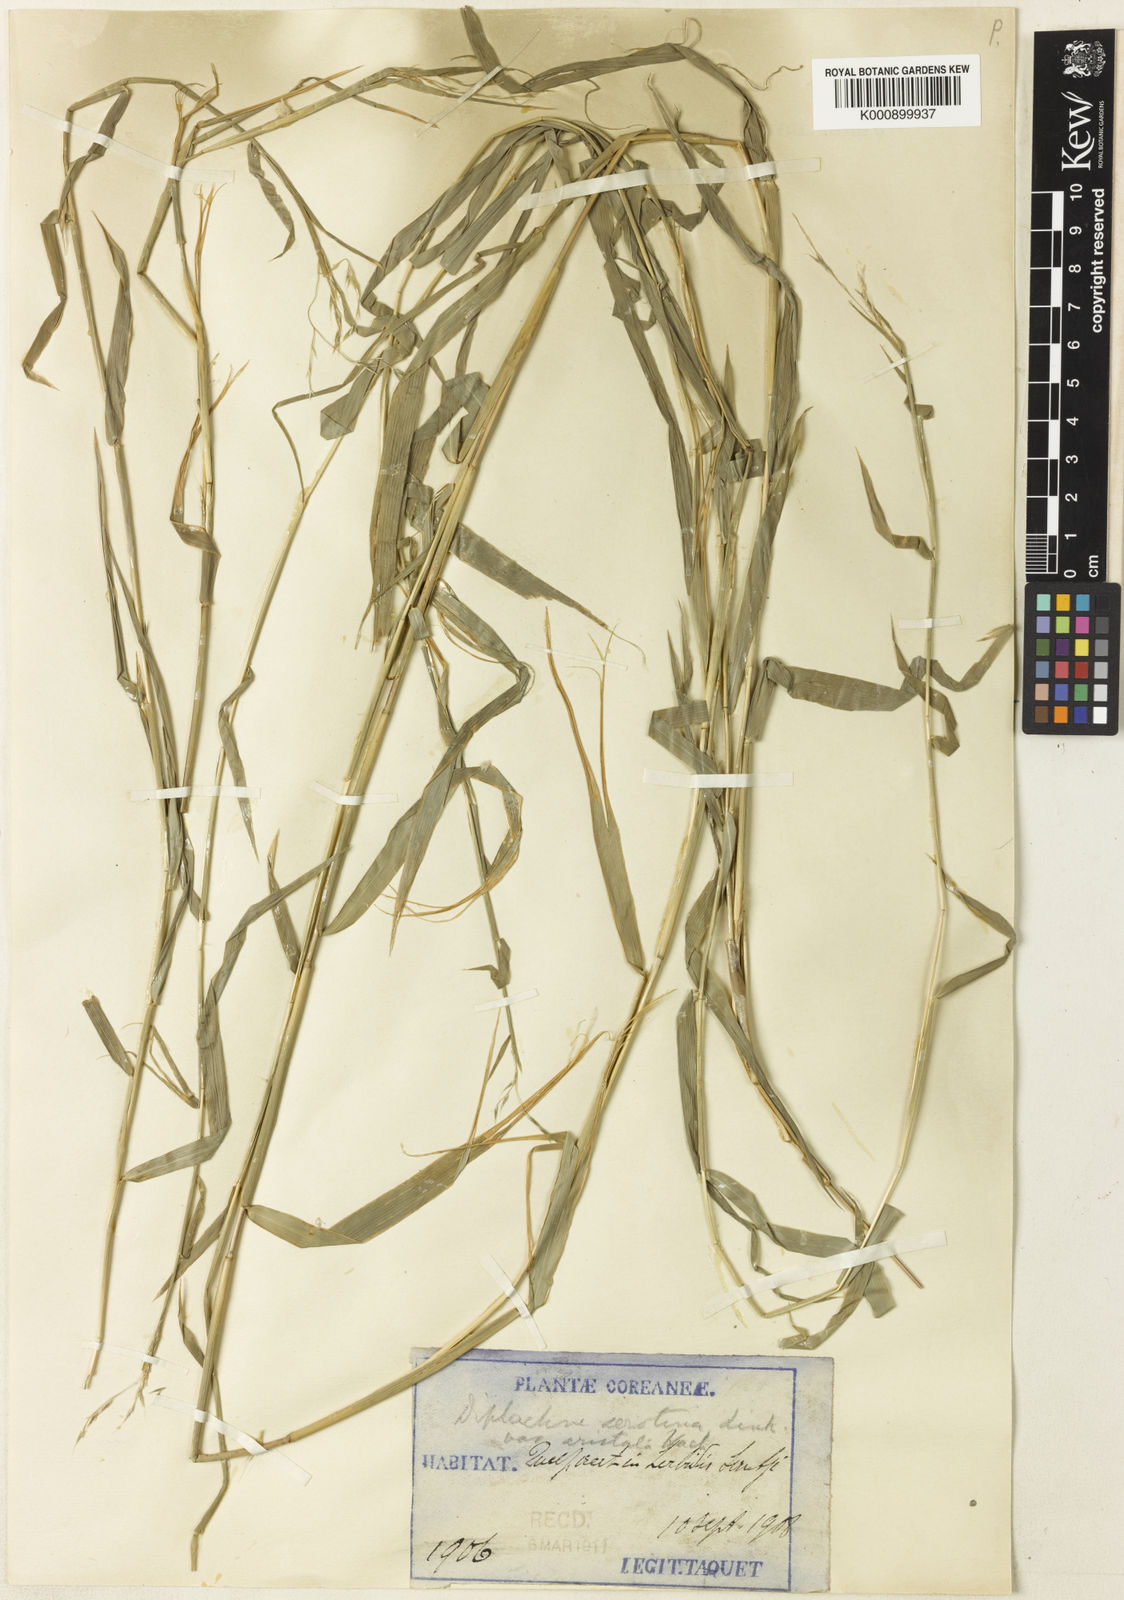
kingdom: Plantae
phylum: Tracheophyta
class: Liliopsida
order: Poales
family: Poaceae
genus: Cleistogenes
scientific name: Cleistogenes hackelii
